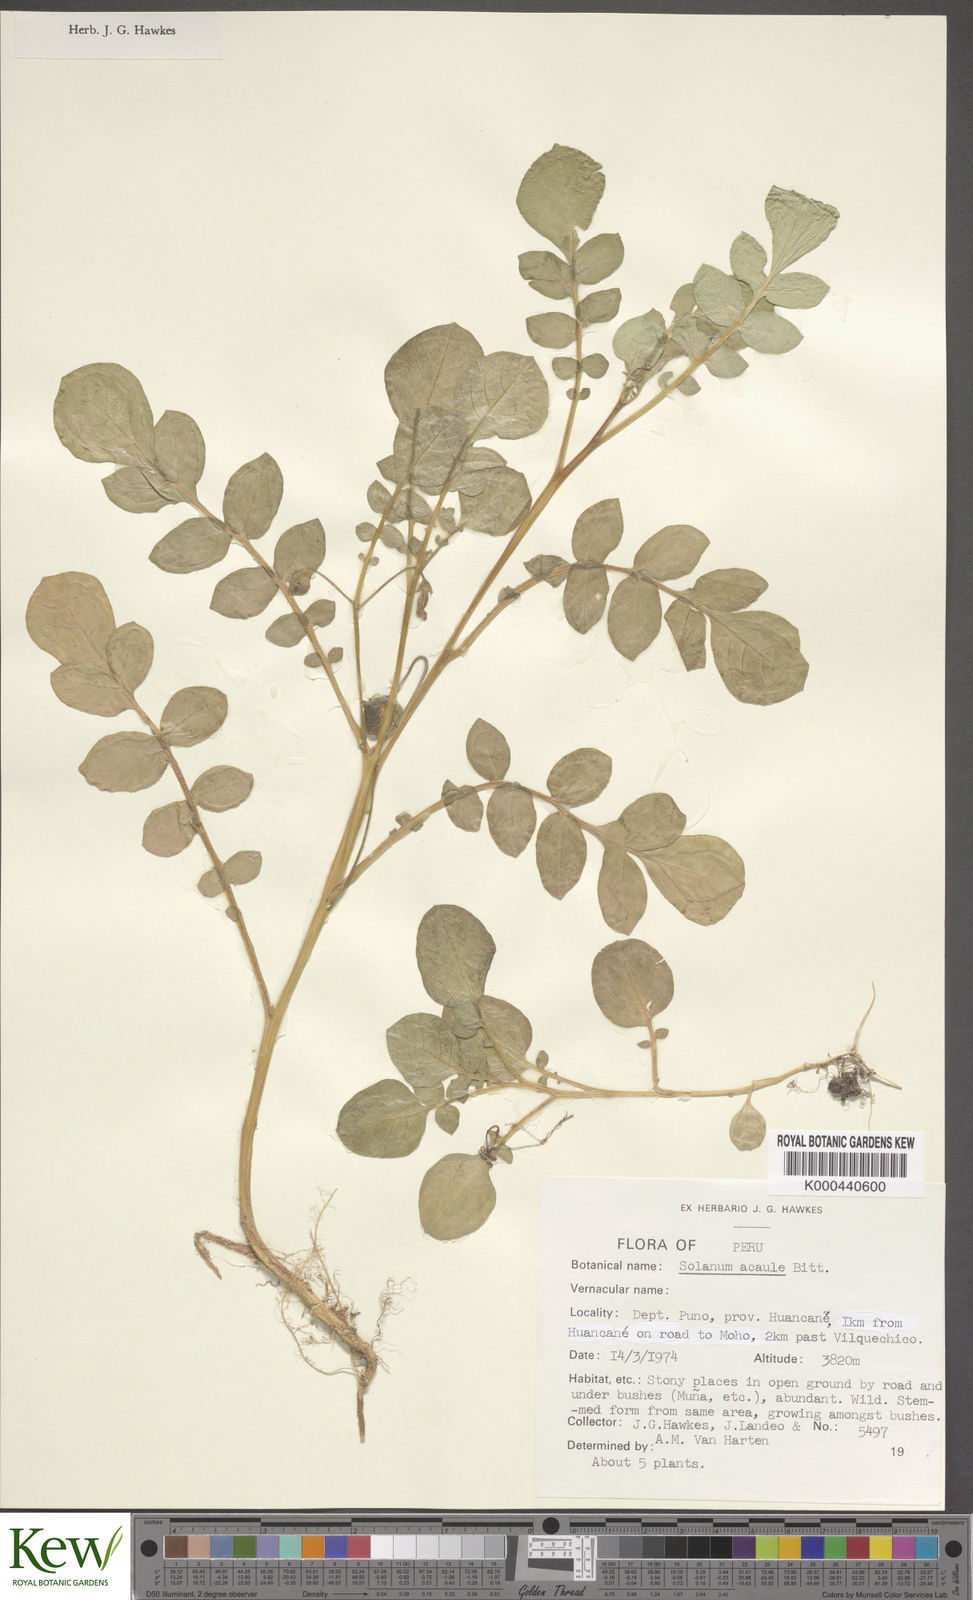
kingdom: Plantae
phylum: Tracheophyta
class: Magnoliopsida
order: Solanales
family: Solanaceae
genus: Solanum
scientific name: Solanum acaule
